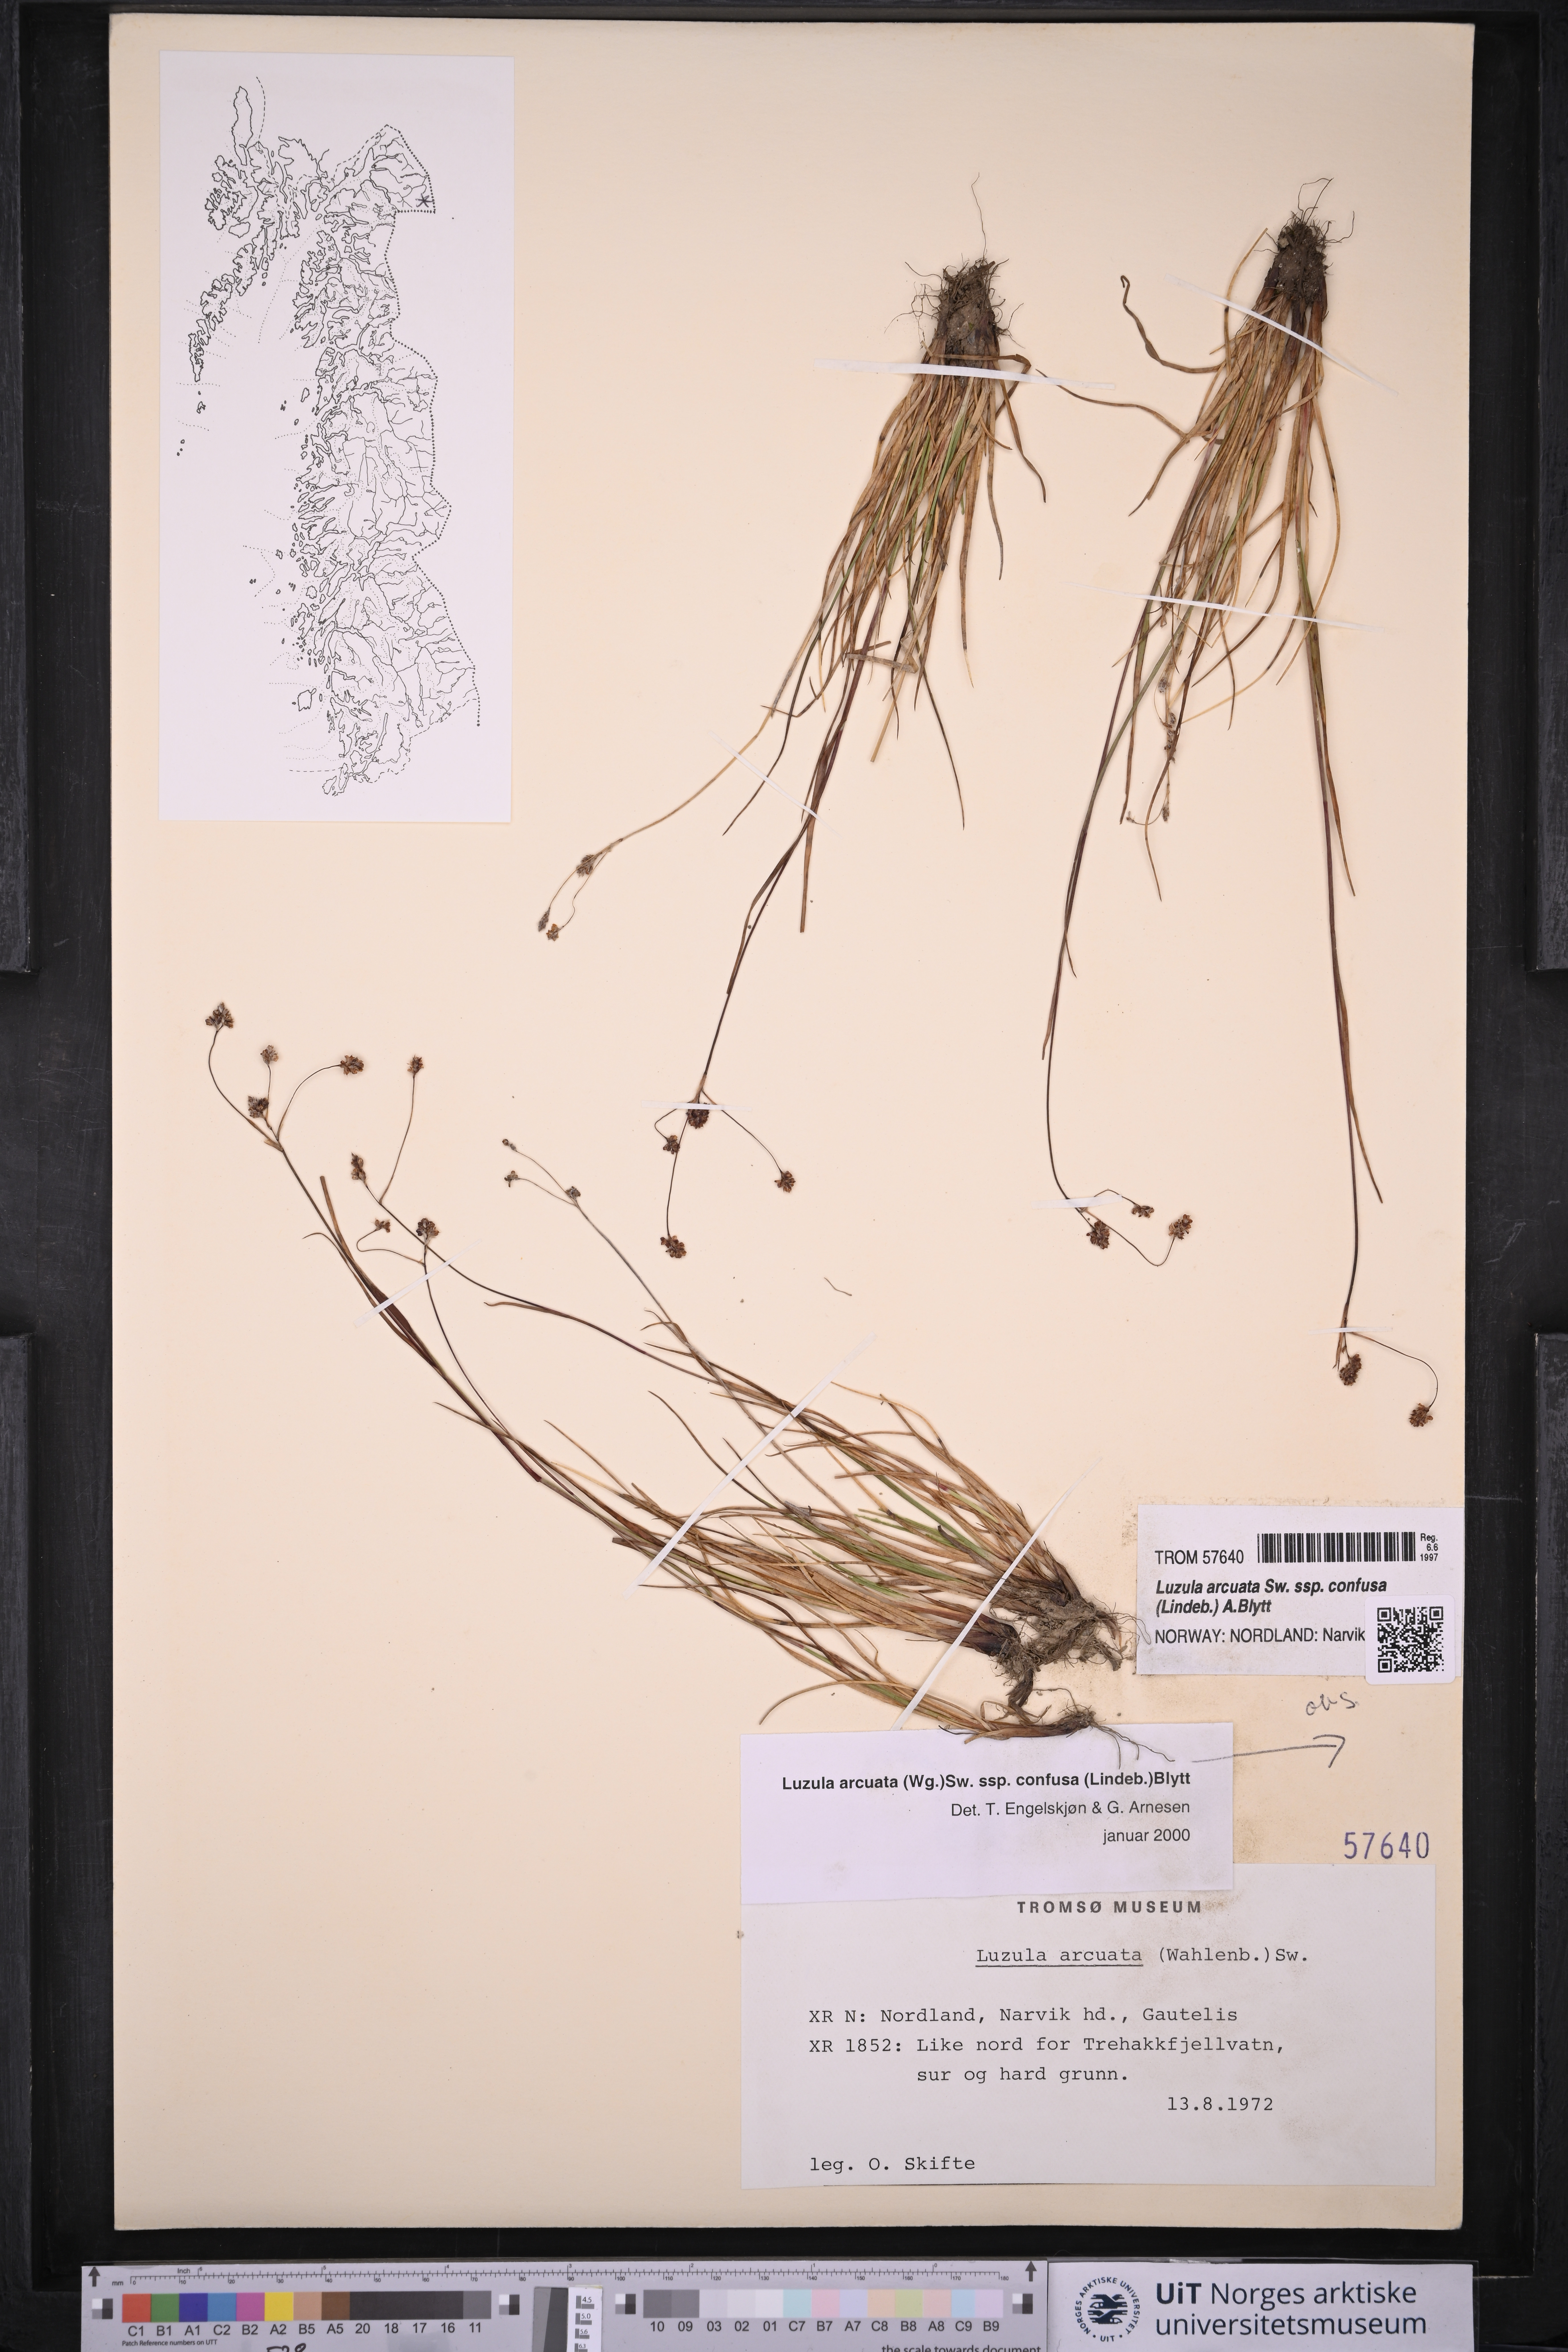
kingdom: Plantae
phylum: Tracheophyta
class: Liliopsida
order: Poales
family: Juncaceae
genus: Luzula
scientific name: Luzula confusa
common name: Northern wood rush
